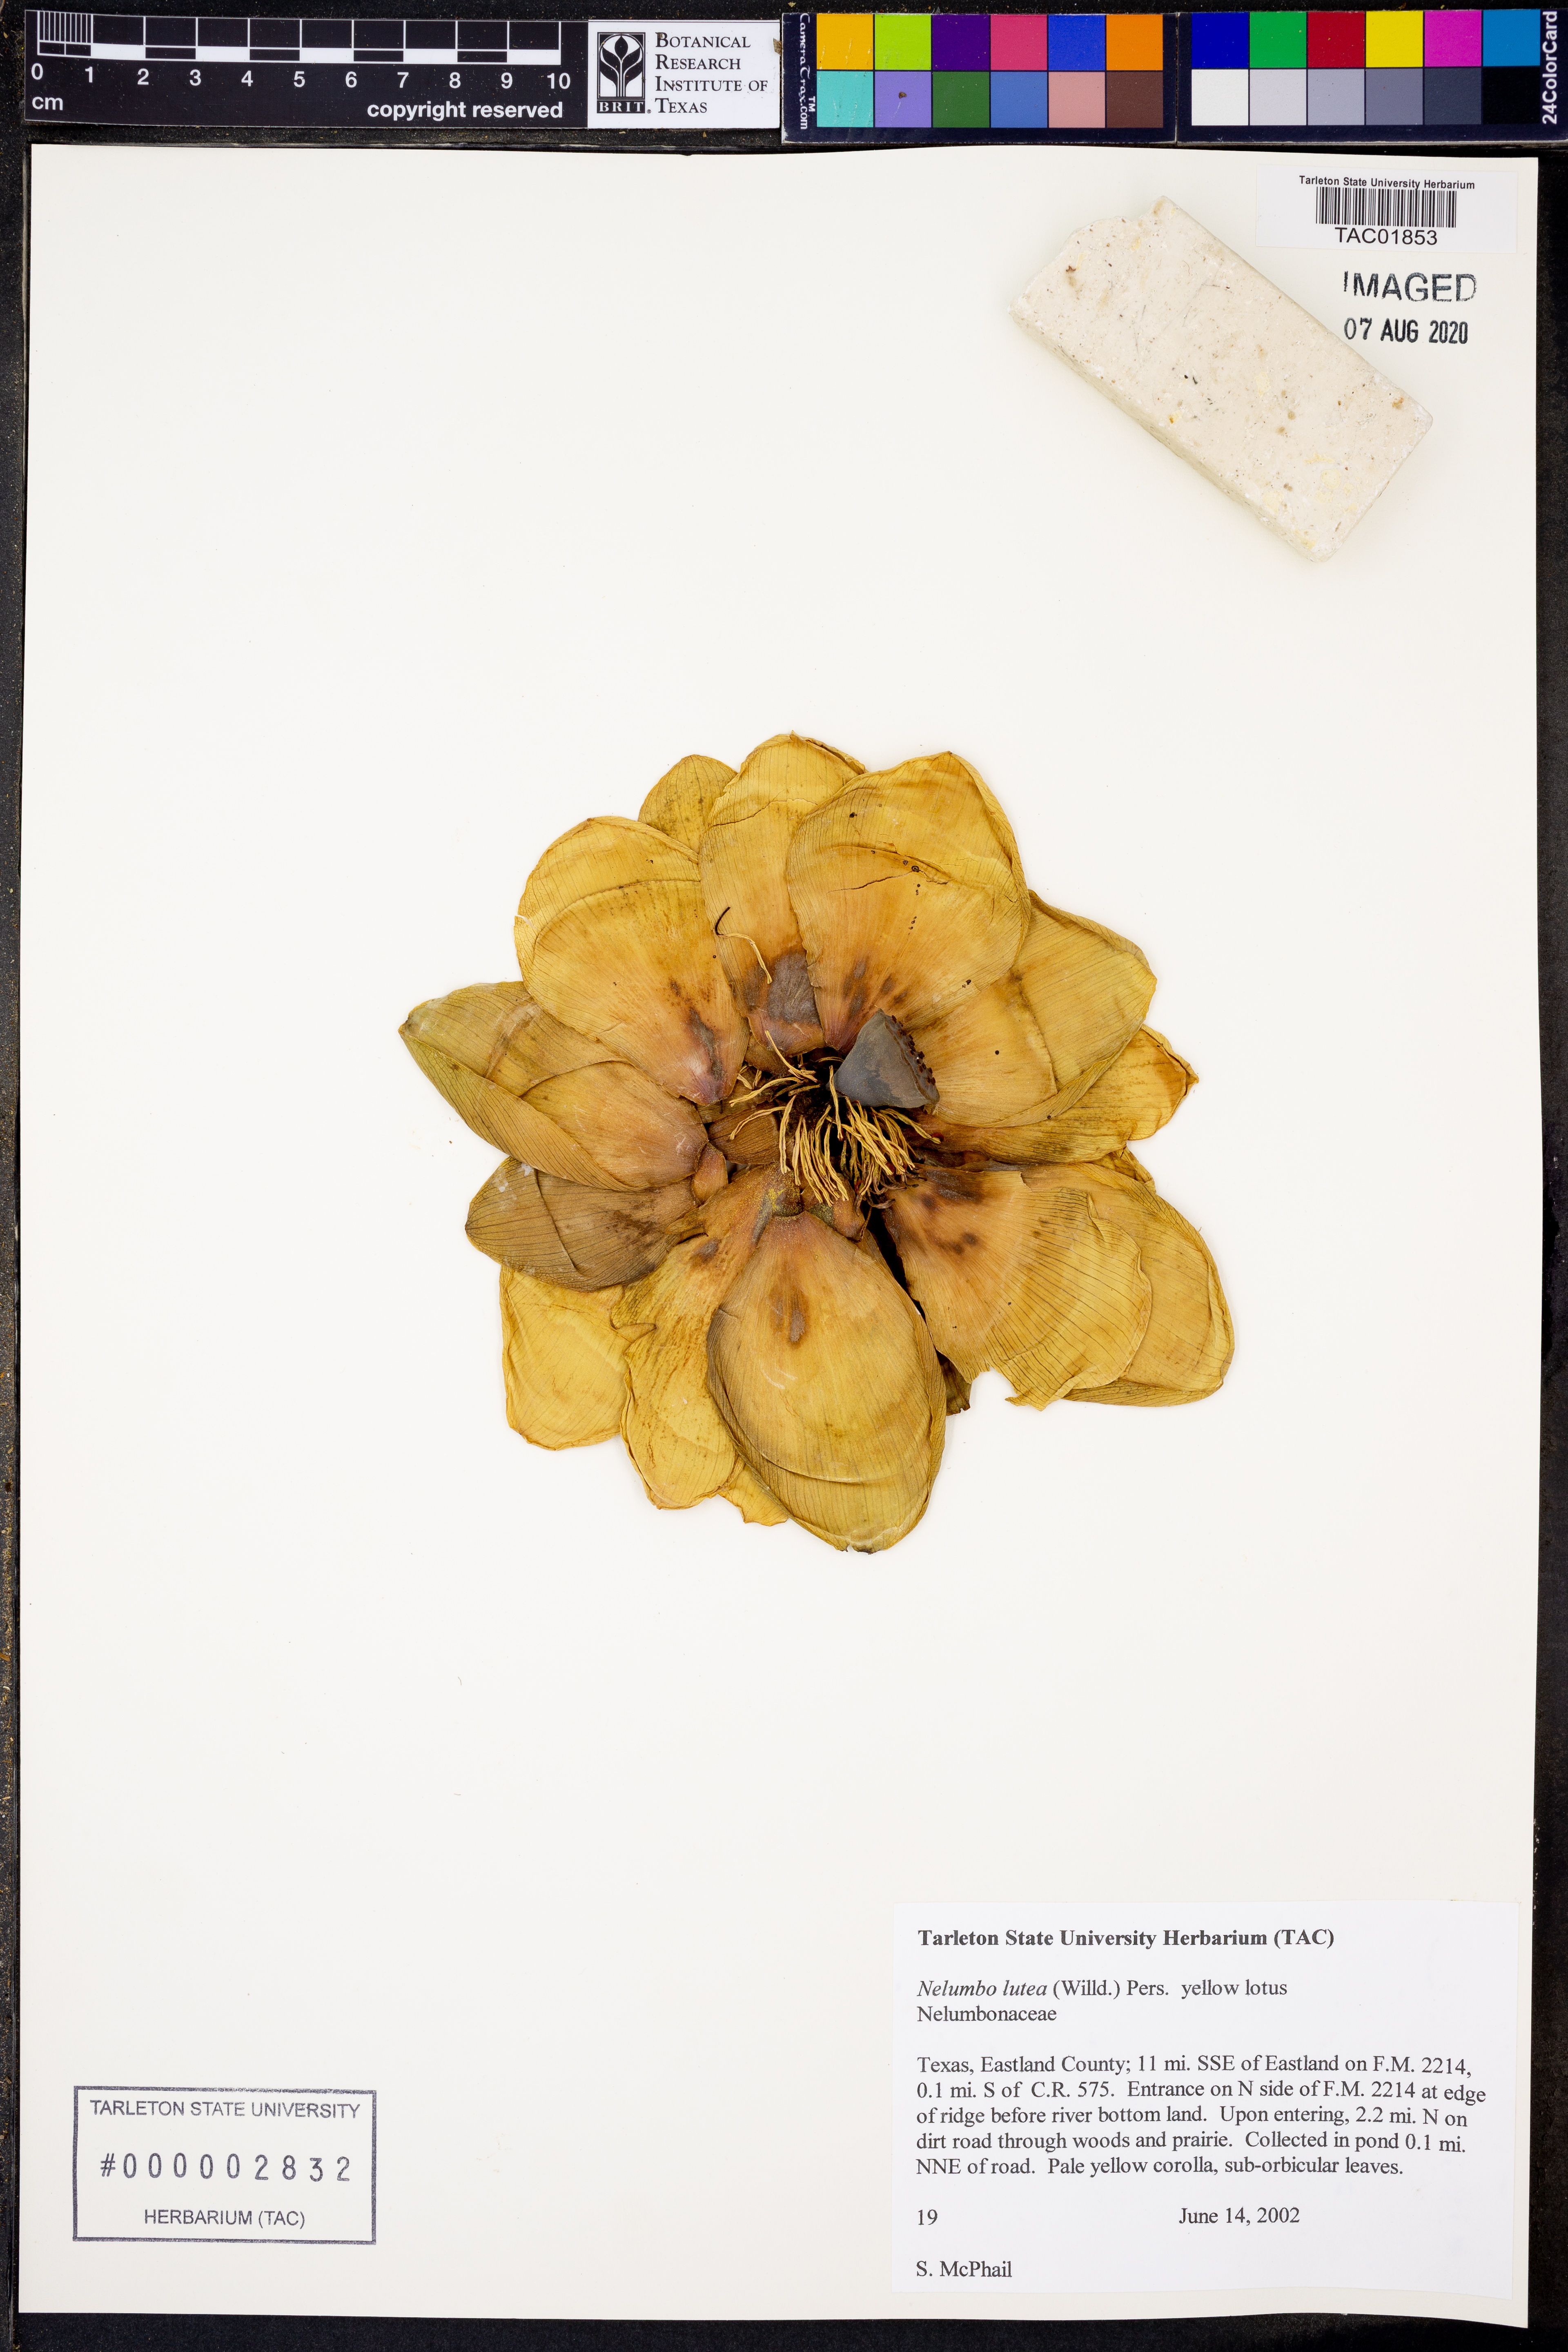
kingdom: Plantae
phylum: Tracheophyta
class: Magnoliopsida
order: Proteales
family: Nelumbonaceae
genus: Nelumbo
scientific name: Nelumbo lutea
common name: American lotus
